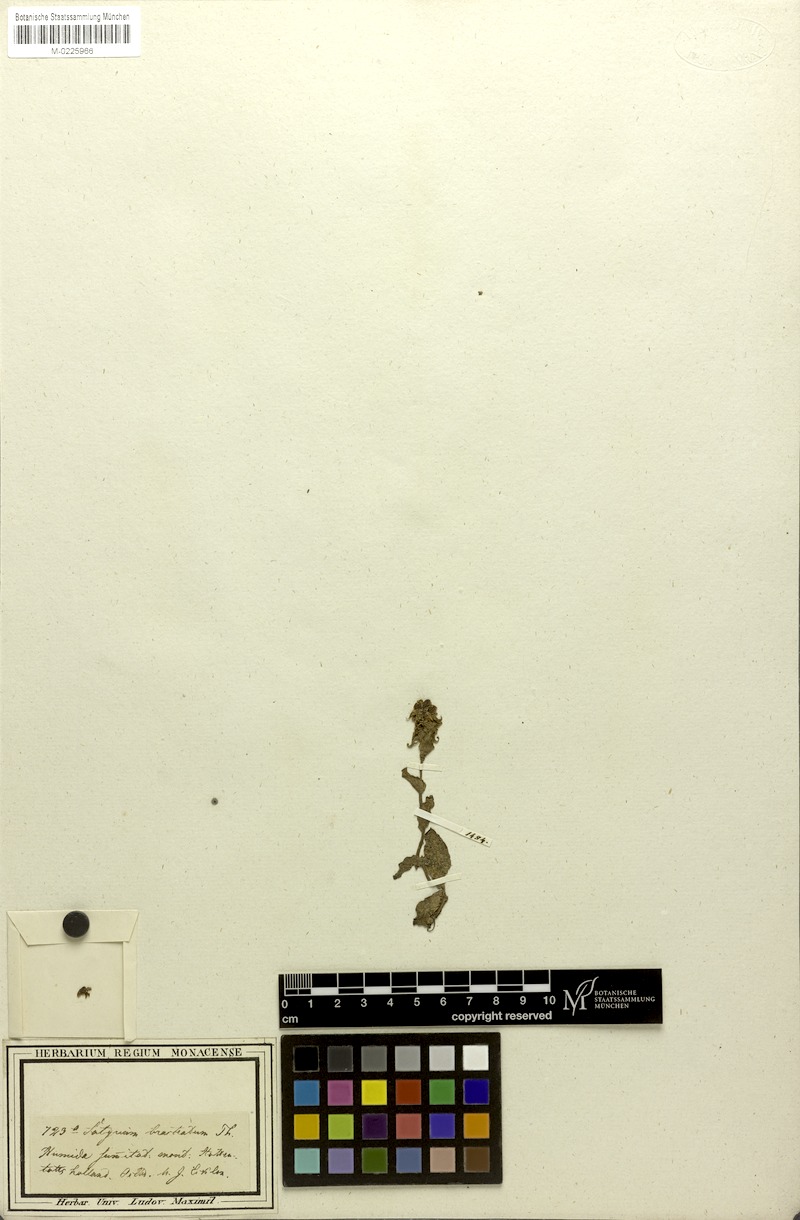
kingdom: Plantae
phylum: Tracheophyta
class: Liliopsida
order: Asparagales
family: Orchidaceae
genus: Satyrium
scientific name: Satyrium bracteatum
